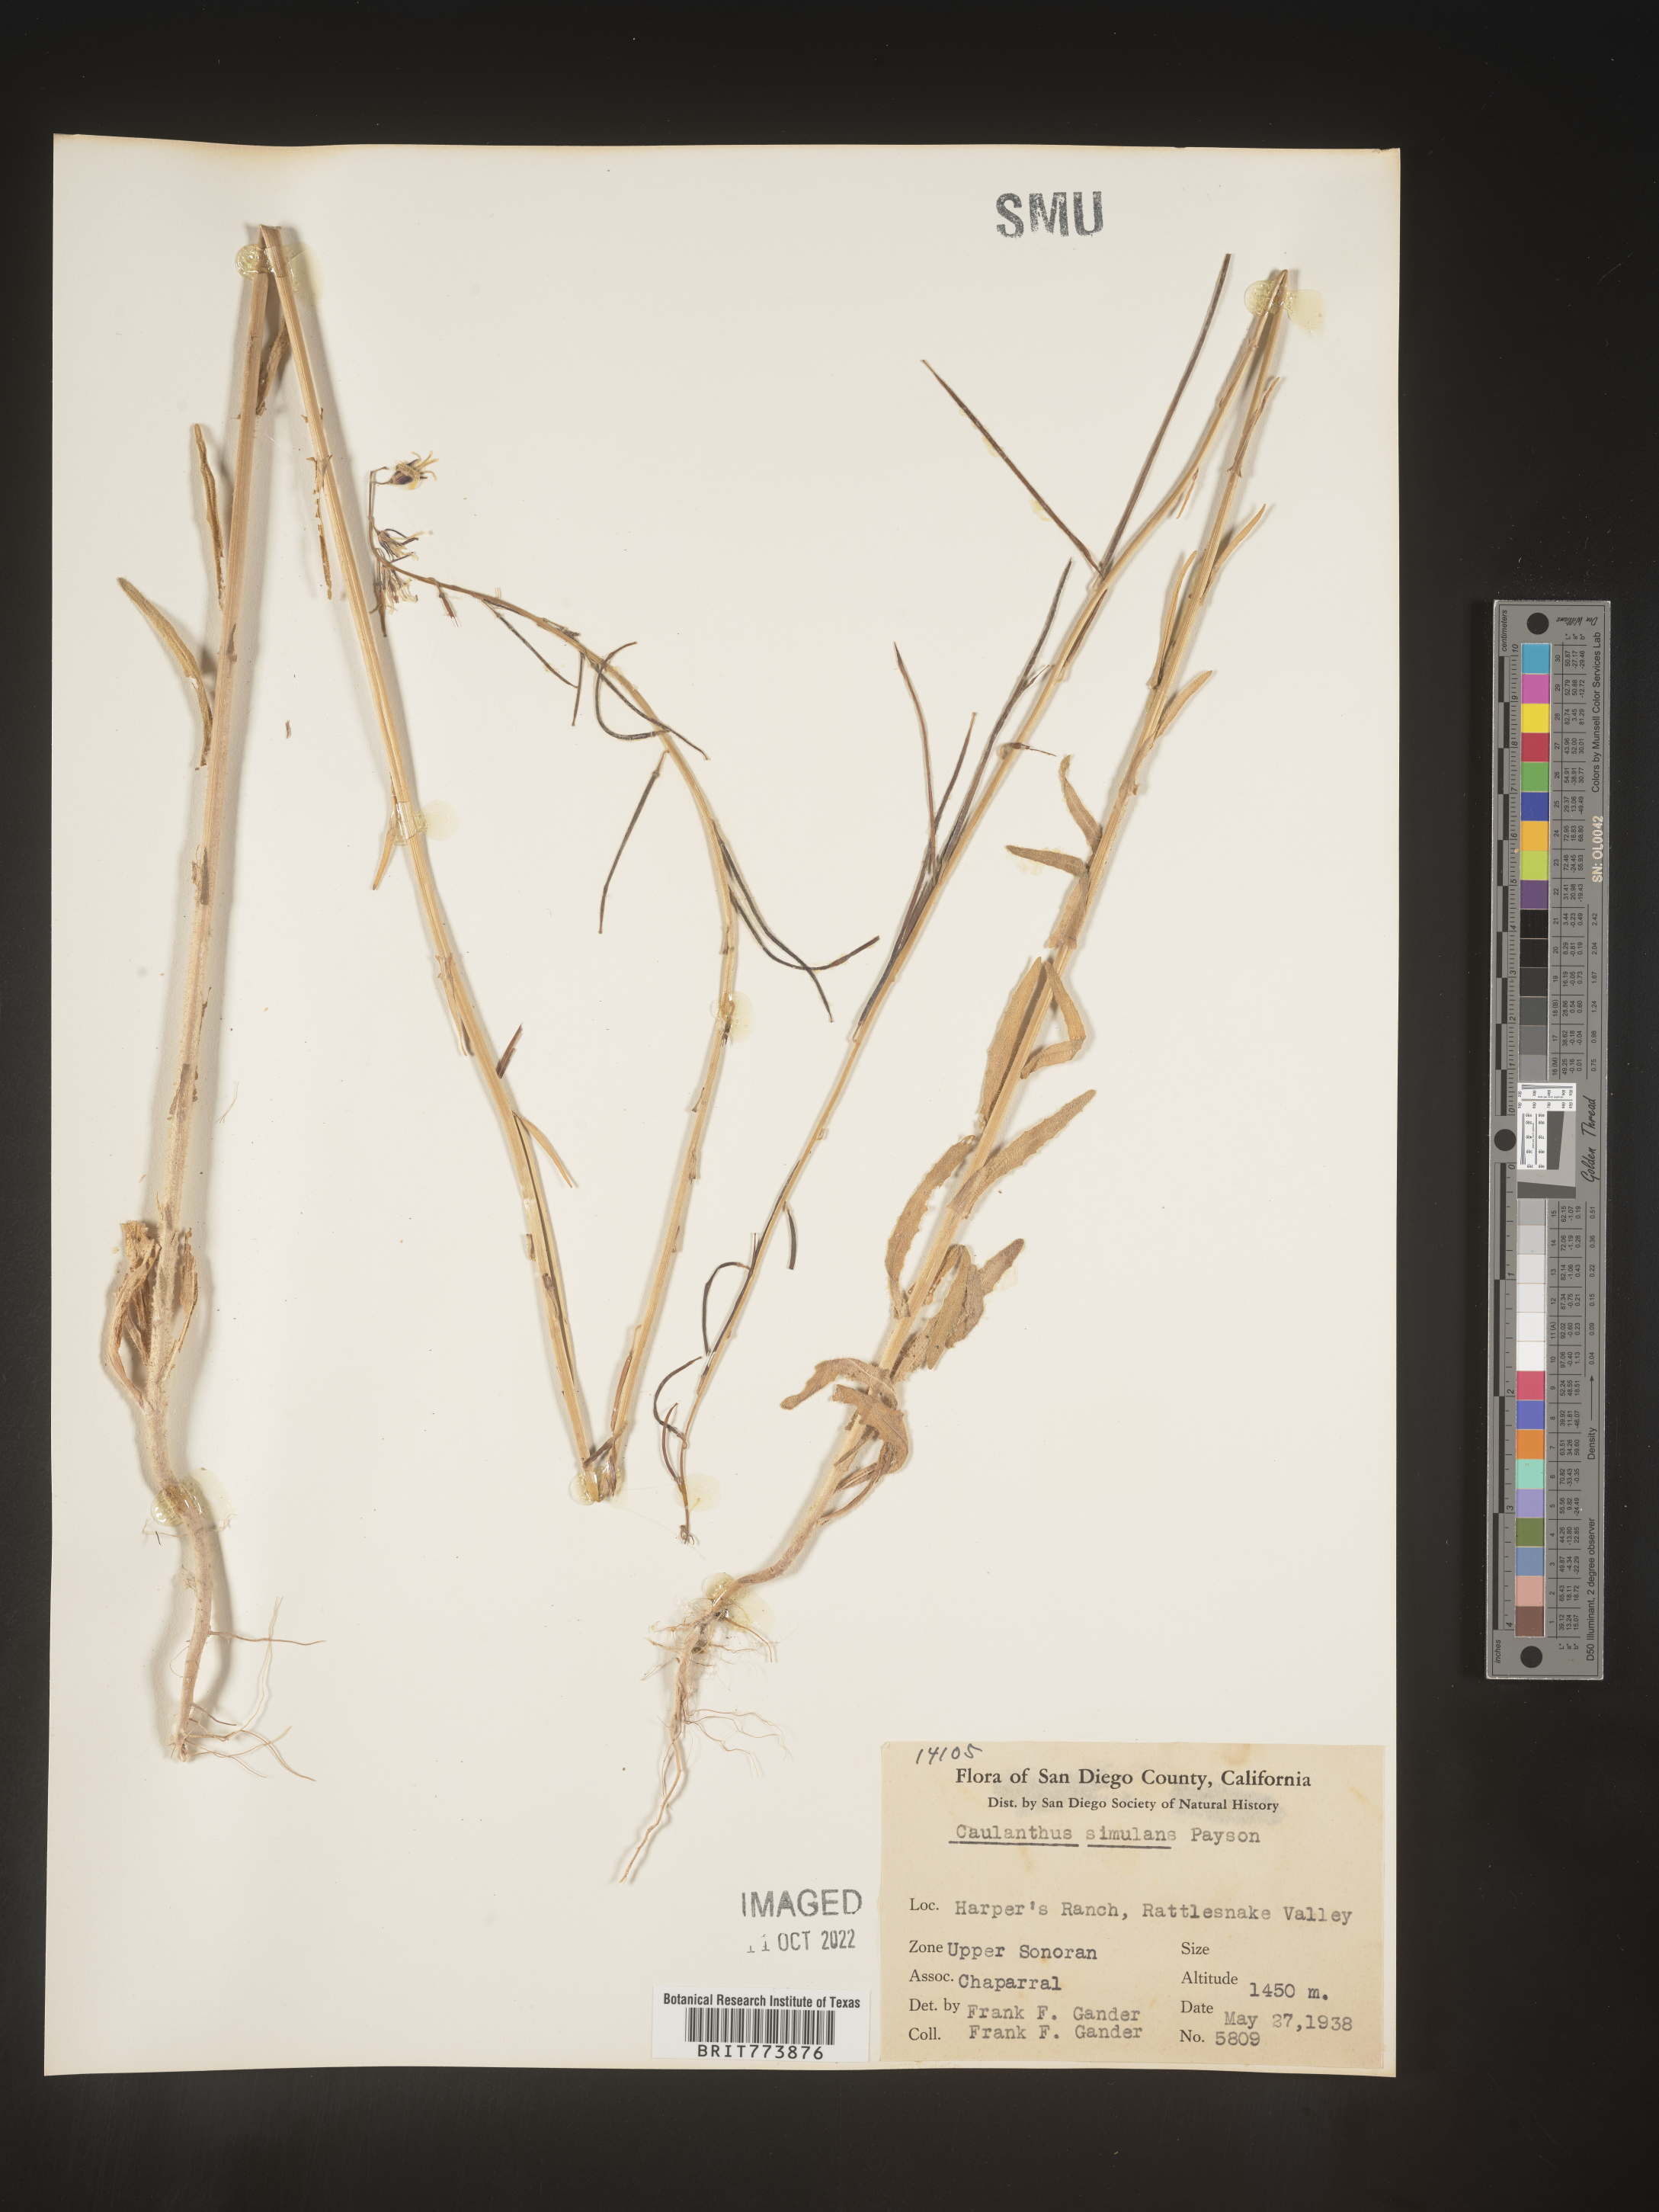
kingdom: Plantae
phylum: Tracheophyta
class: Magnoliopsida
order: Brassicales
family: Brassicaceae
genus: Streptanthus
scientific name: Streptanthus
